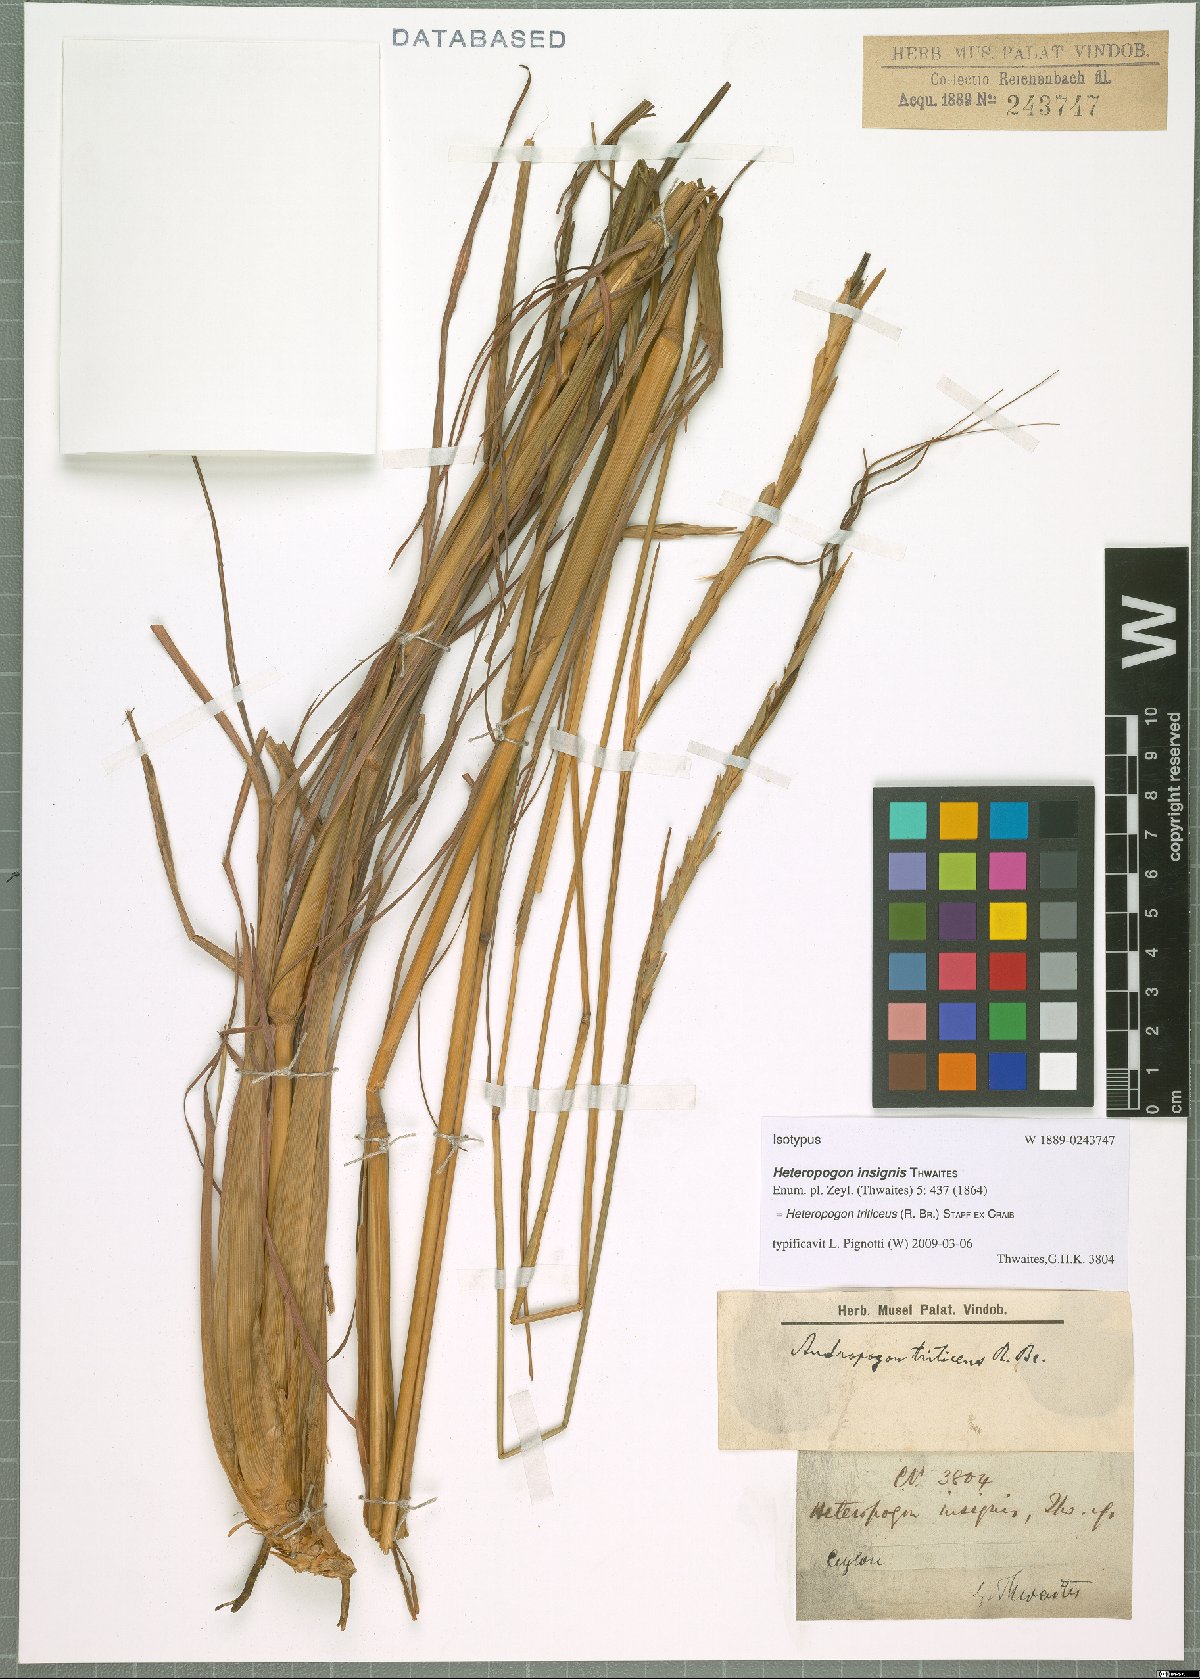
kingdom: Plantae
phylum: Tracheophyta
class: Liliopsida
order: Poales
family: Poaceae
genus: Heteropogon
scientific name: Heteropogon triticeus
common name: Sugar grass
